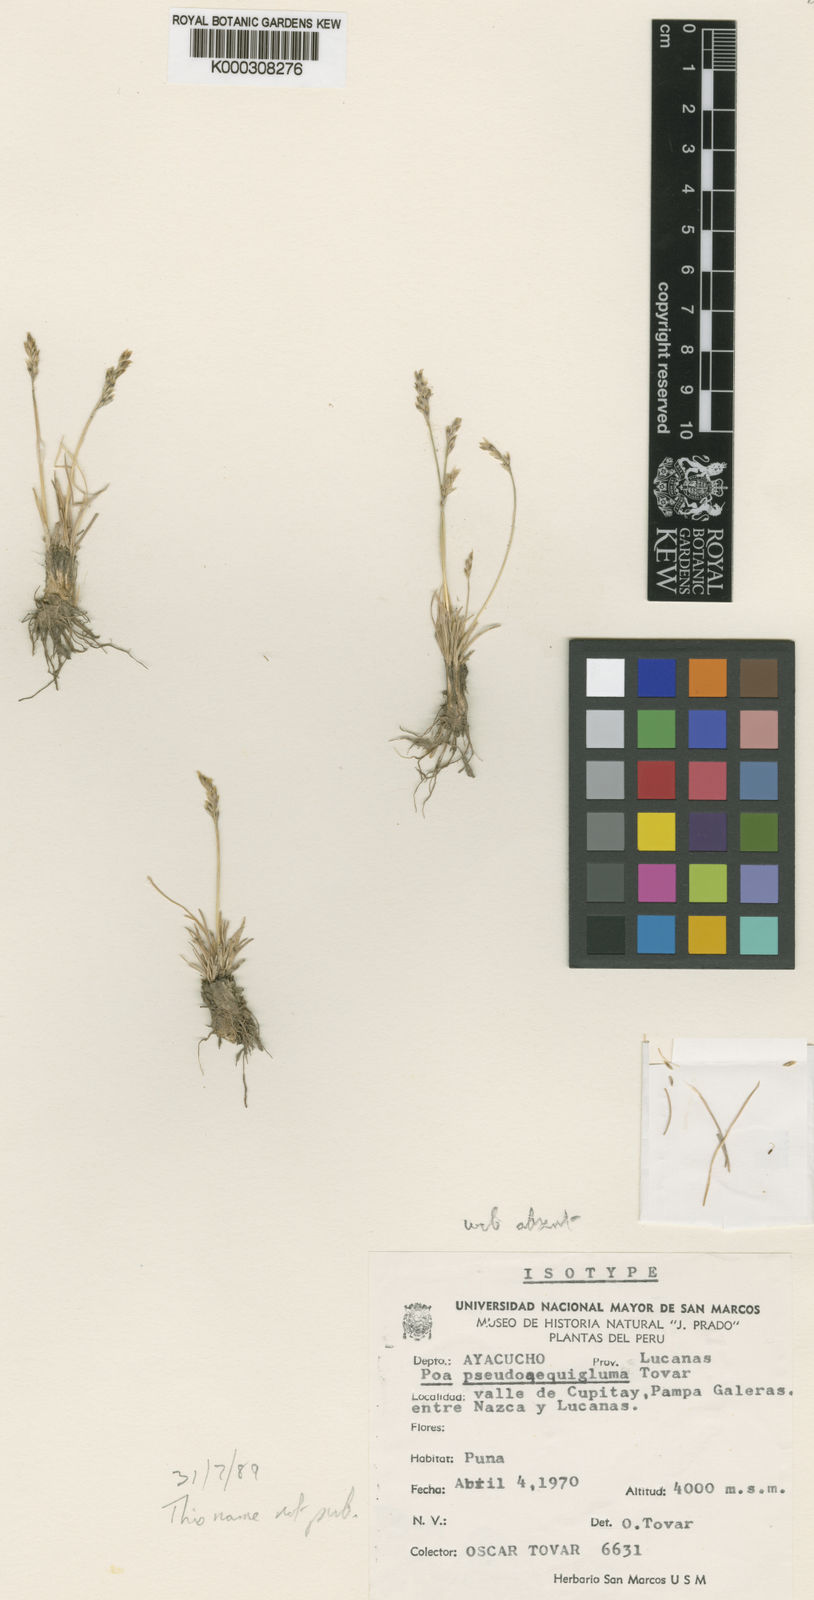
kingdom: Plantae
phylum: Tracheophyta
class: Liliopsida
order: Poales
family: Poaceae
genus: Poa
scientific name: Poa gymnantha
